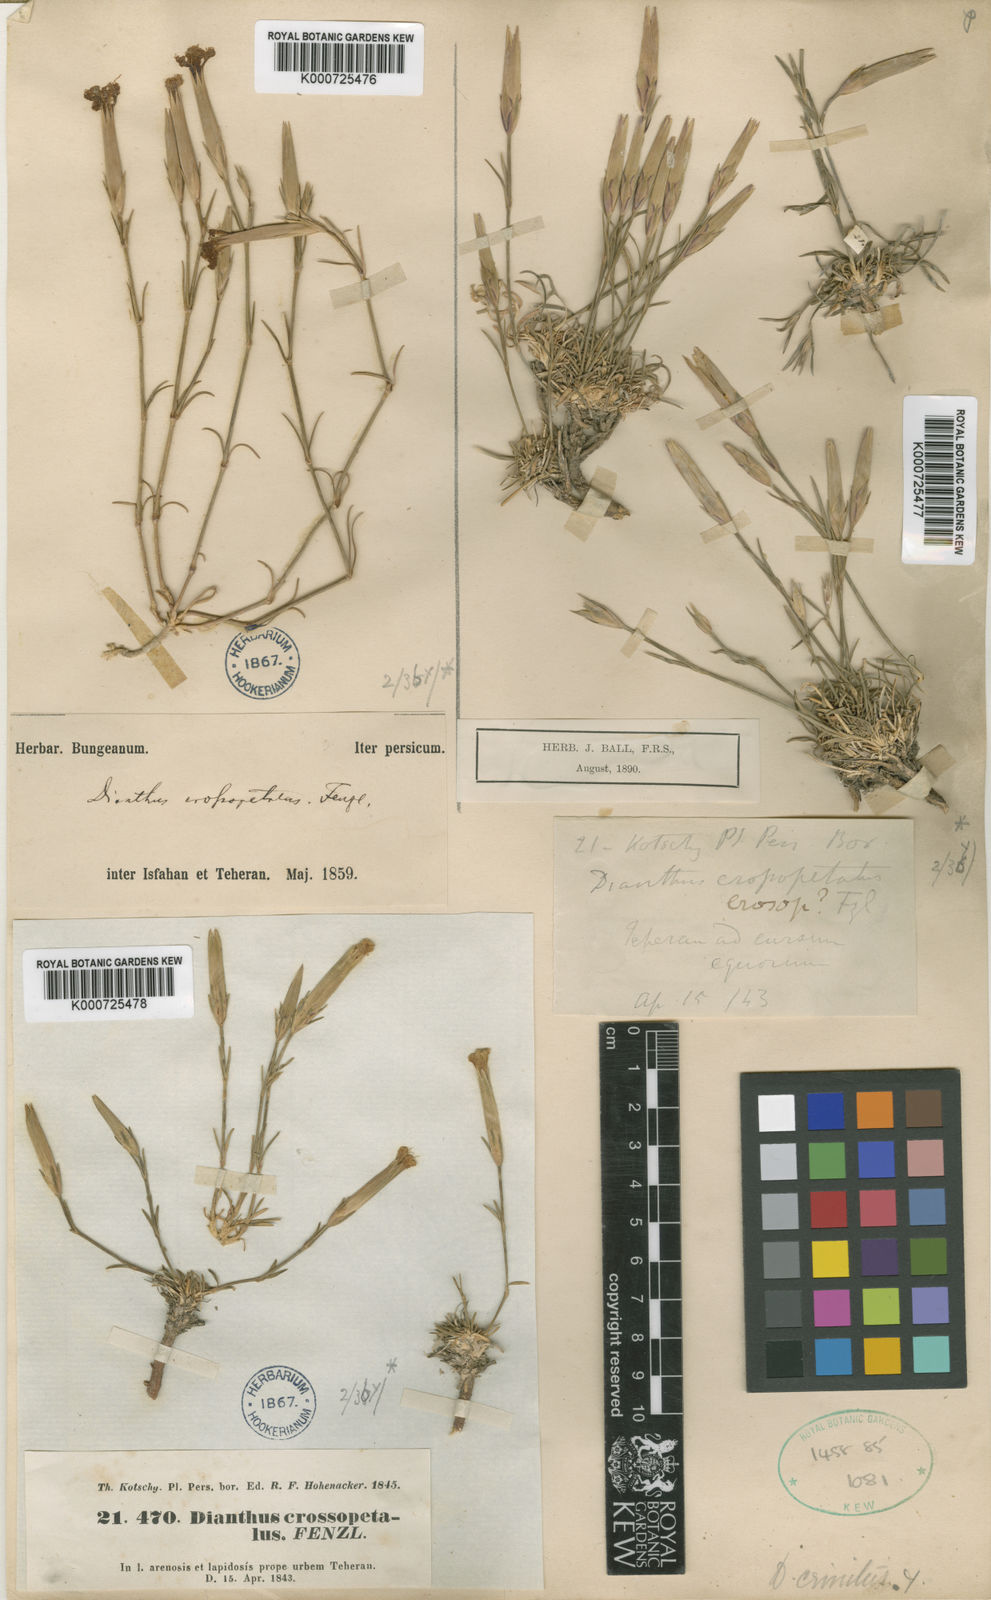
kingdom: Plantae
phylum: Tracheophyta
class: Magnoliopsida
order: Caryophyllales
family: Caryophyllaceae
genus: Dianthus
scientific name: Dianthus
